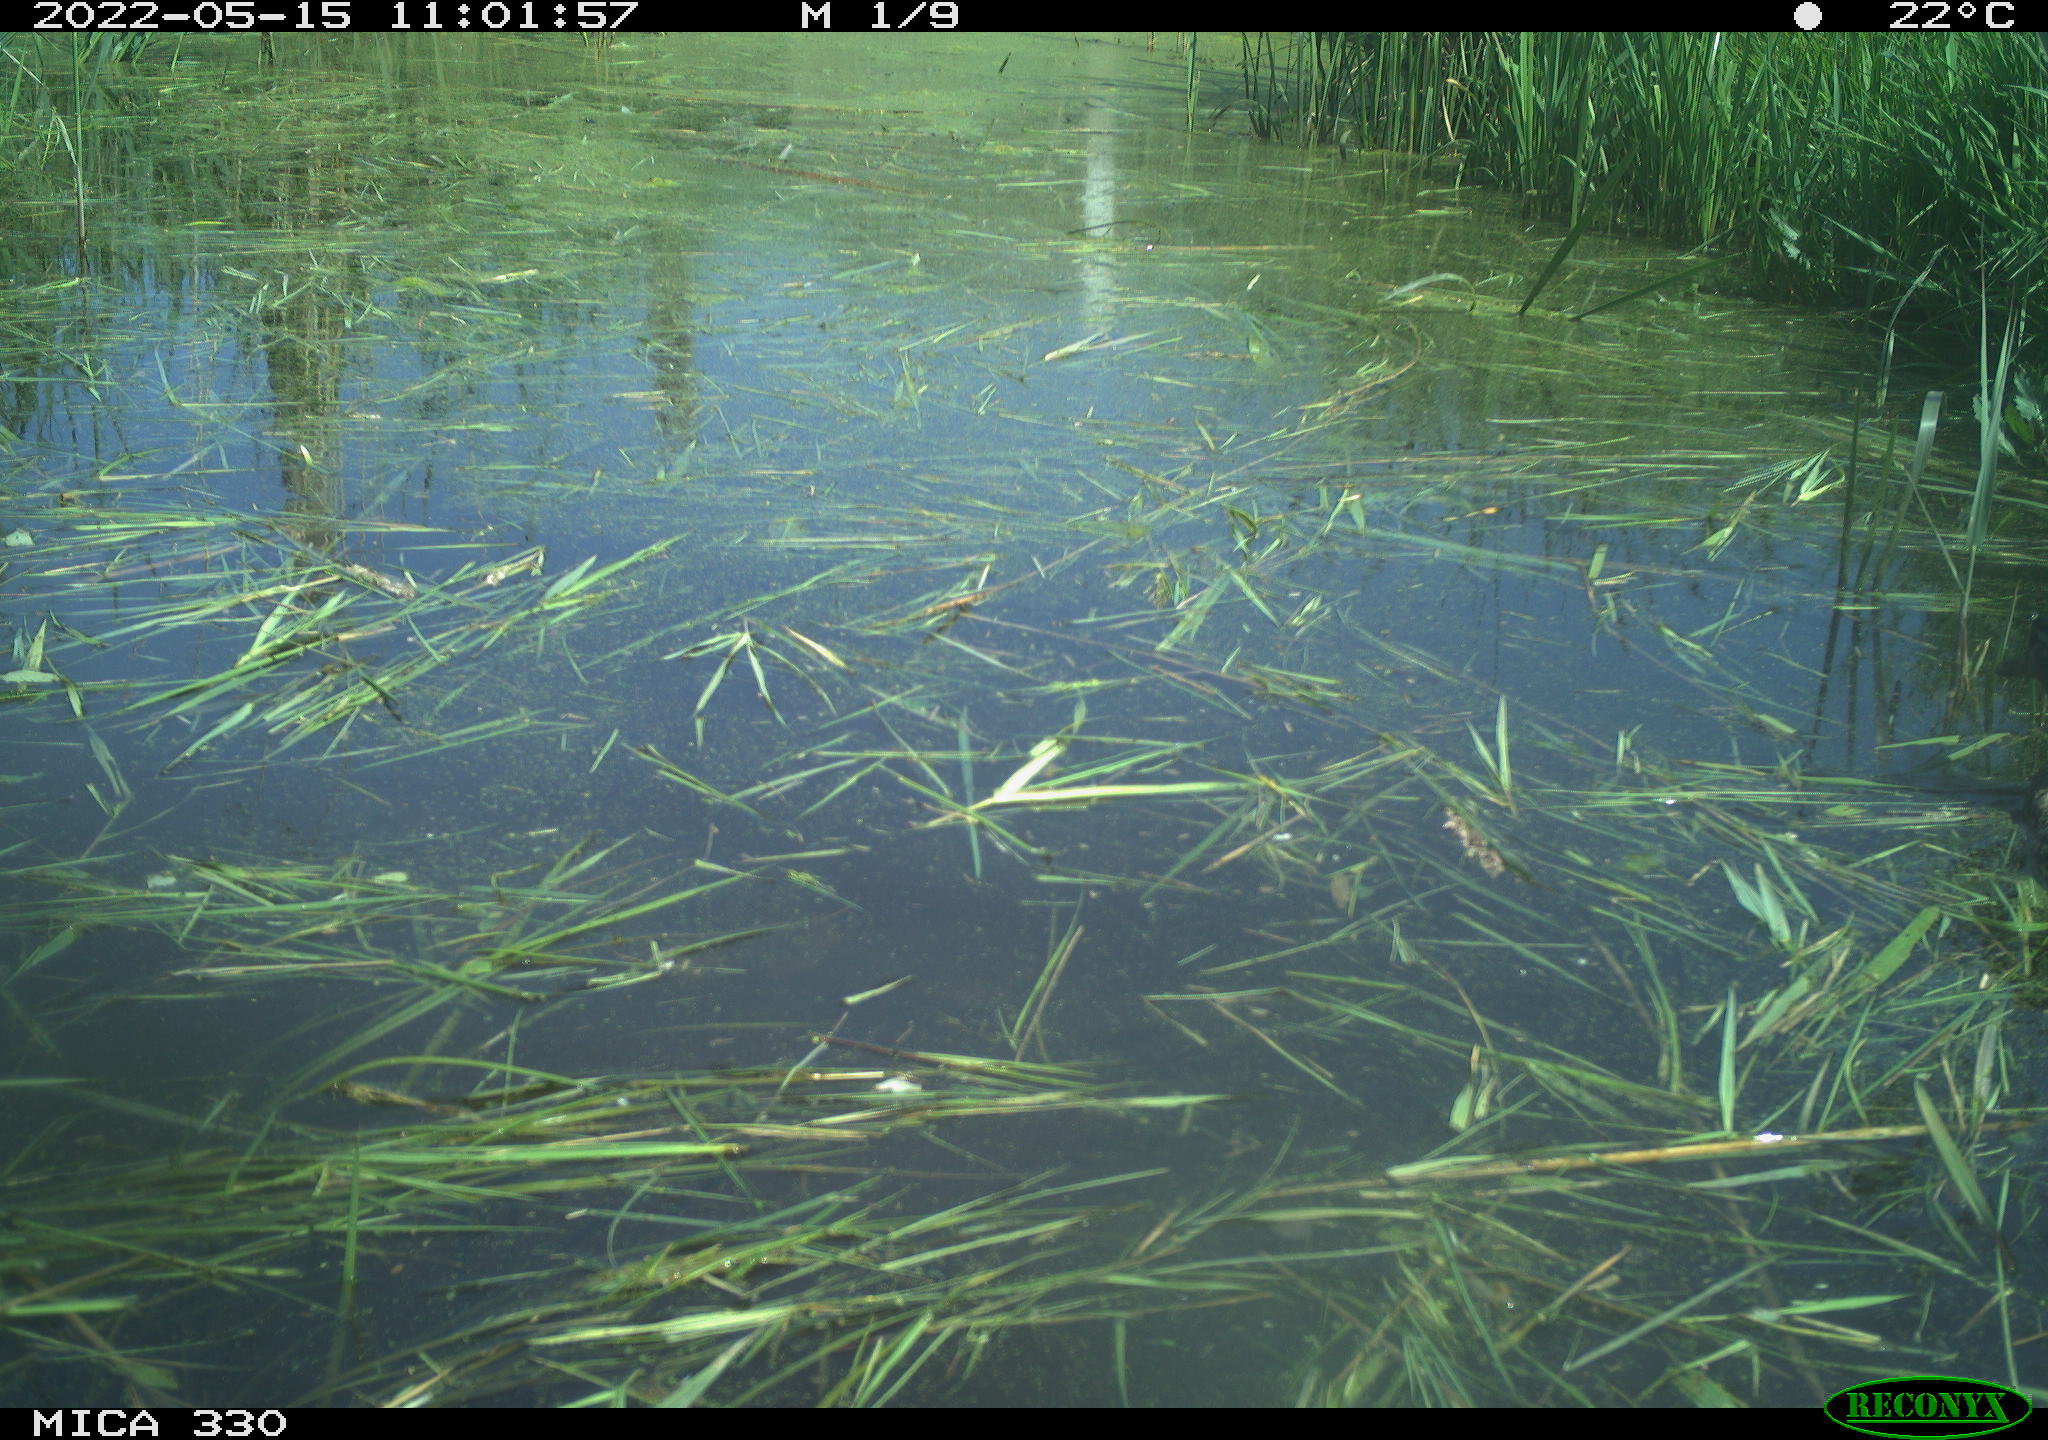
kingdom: Animalia
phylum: Chordata
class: Aves
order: Anseriformes
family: Anatidae
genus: Anas
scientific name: Anas platyrhynchos
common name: Mallard
